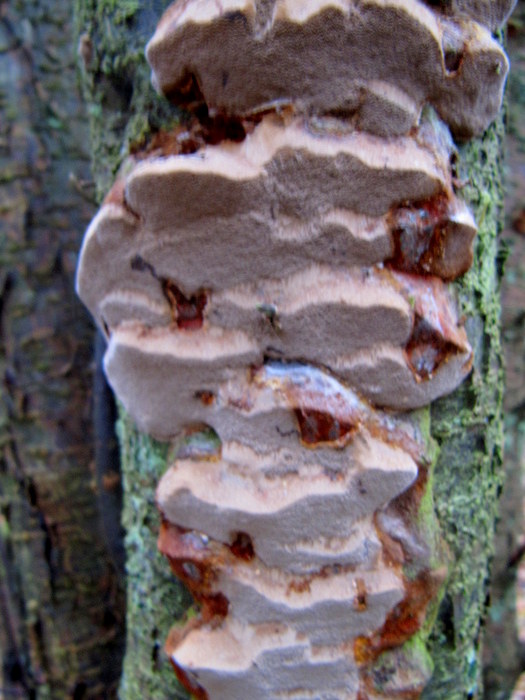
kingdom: Fungi
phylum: Basidiomycota
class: Agaricomycetes
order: Hymenochaetales
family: Hymenochaetaceae
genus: Phellinus
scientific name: Phellinus pomaceus
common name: blomme-ildporesvamp
